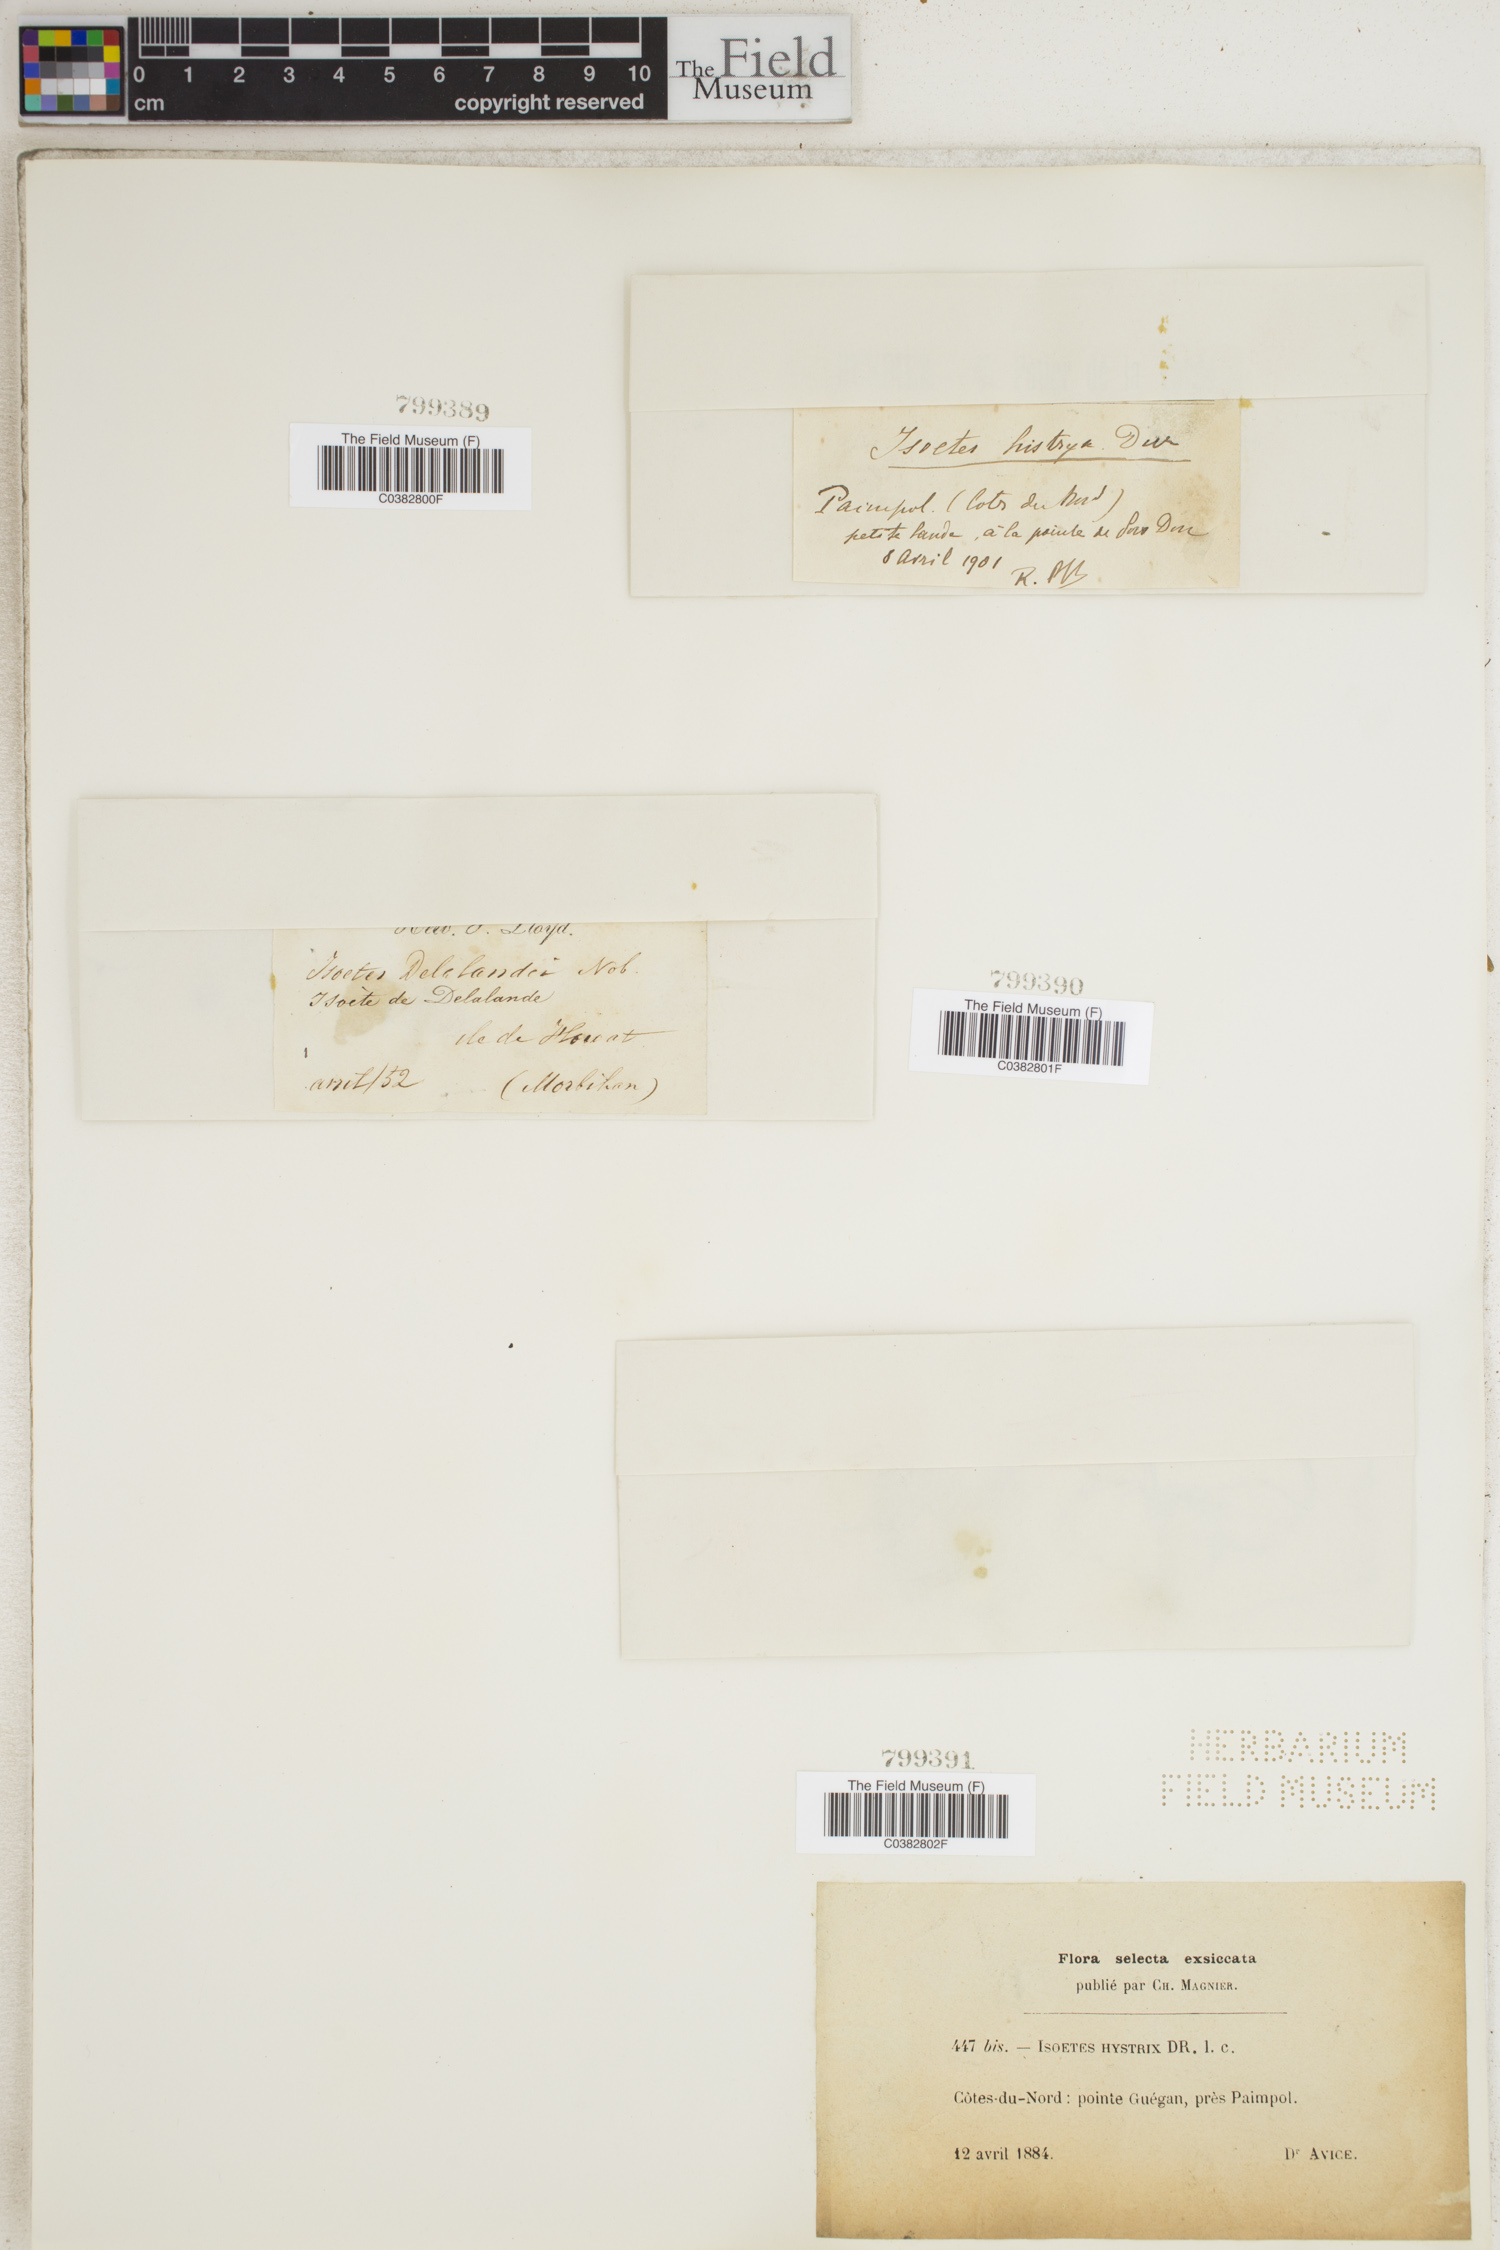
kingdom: Plantae
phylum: Tracheophyta
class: Lycopodiopsida
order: Isoetales
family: Isoetaceae
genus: Isoetes
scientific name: Isoetes histrix
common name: Land quillwort
